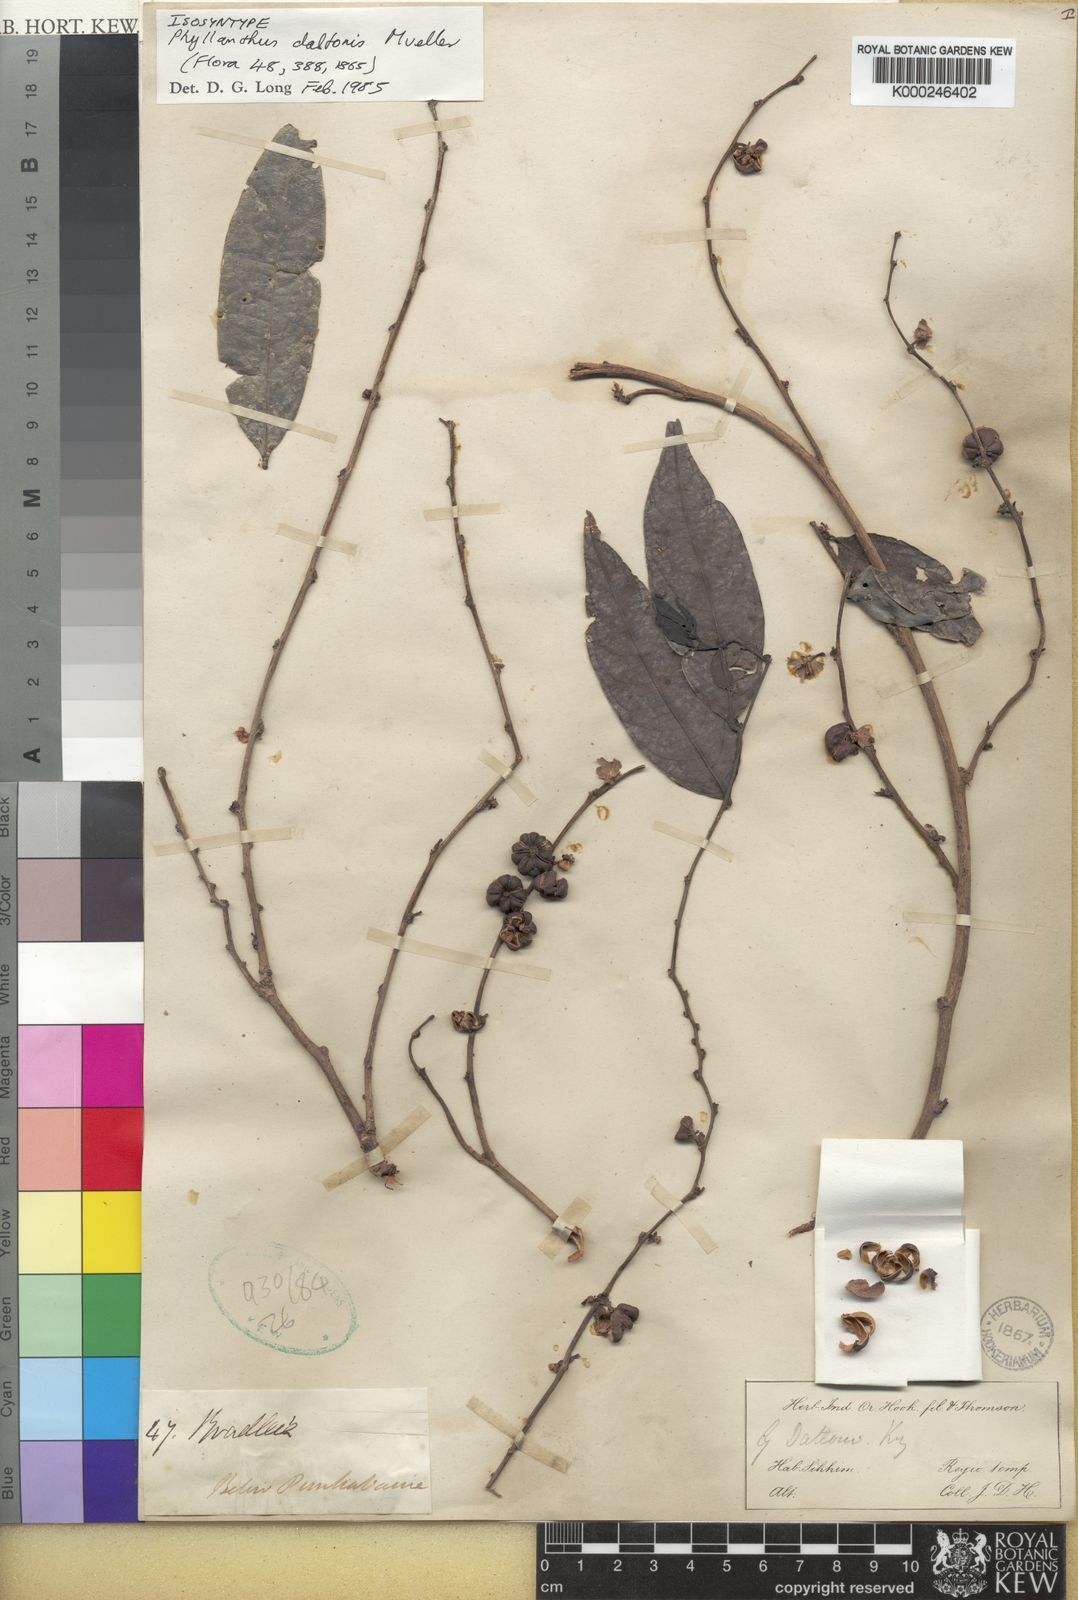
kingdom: Plantae
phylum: Tracheophyta
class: Magnoliopsida
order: Malpighiales
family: Phyllanthaceae
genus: Glochidion
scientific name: Glochidion
